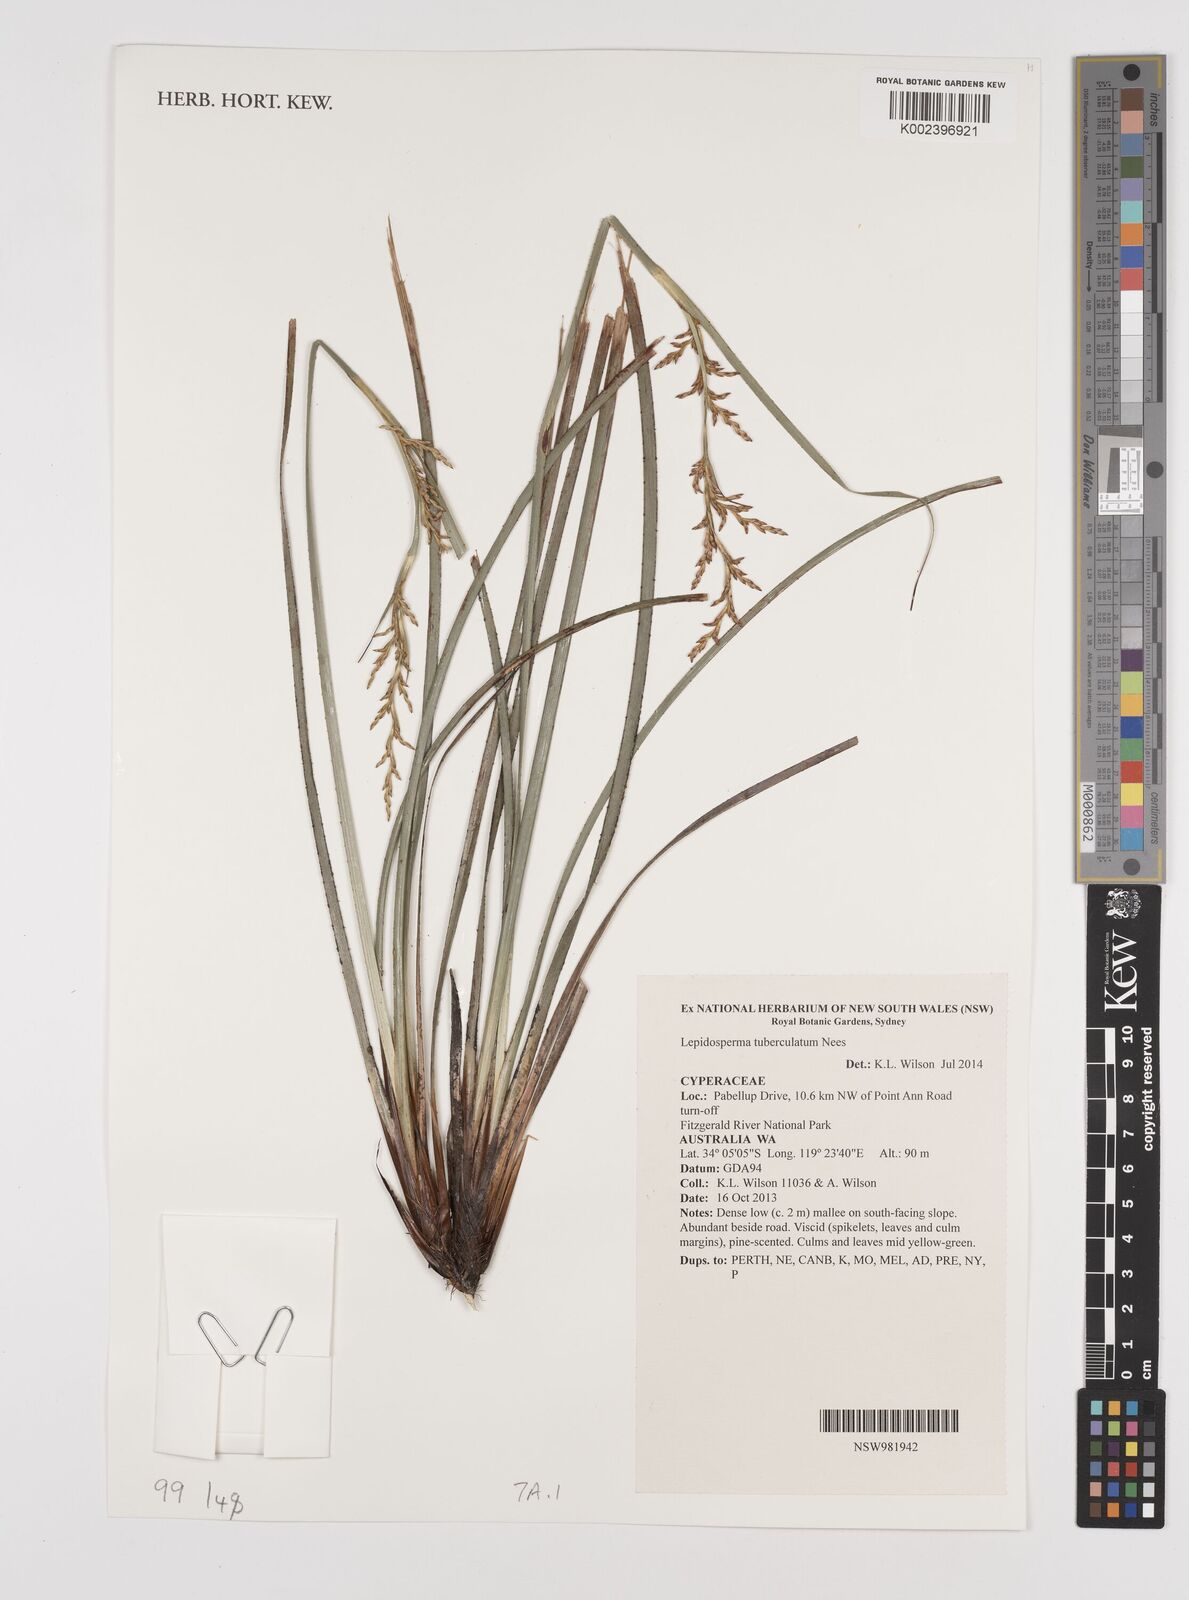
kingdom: Plantae
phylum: Tracheophyta
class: Liliopsida
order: Poales
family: Cyperaceae
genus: Lepidosperma
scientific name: Lepidosperma tuberculatum
